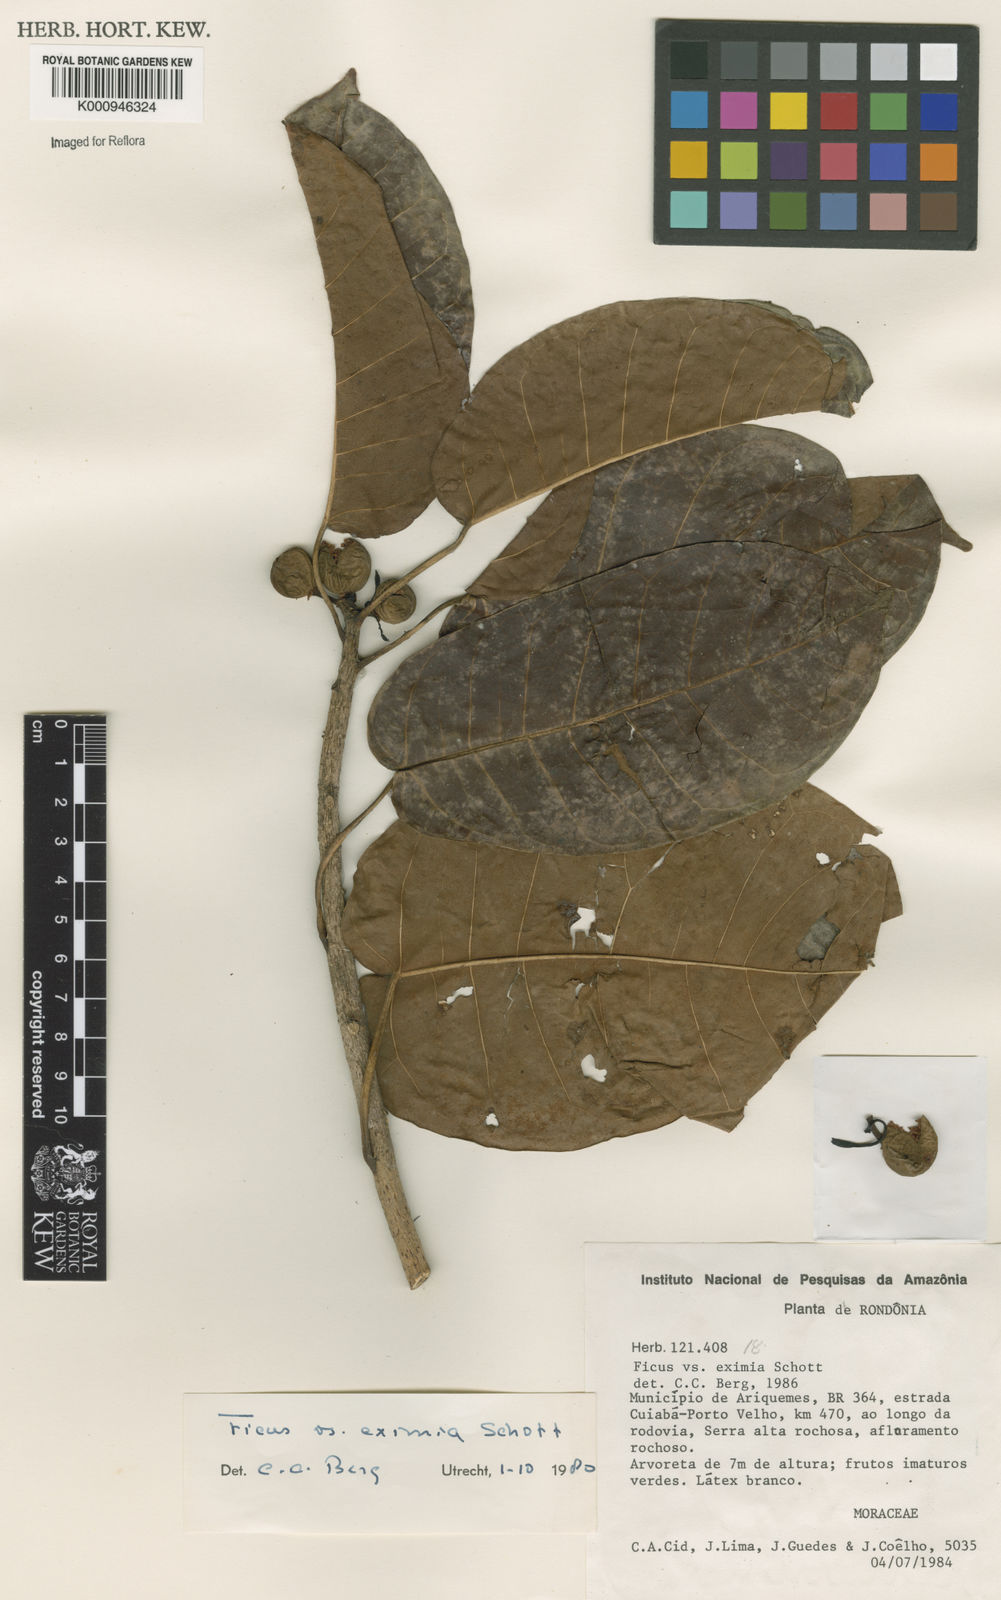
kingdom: Plantae
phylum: Tracheophyta
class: Magnoliopsida
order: Rosales
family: Moraceae
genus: Ficus
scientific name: Ficus eximia
